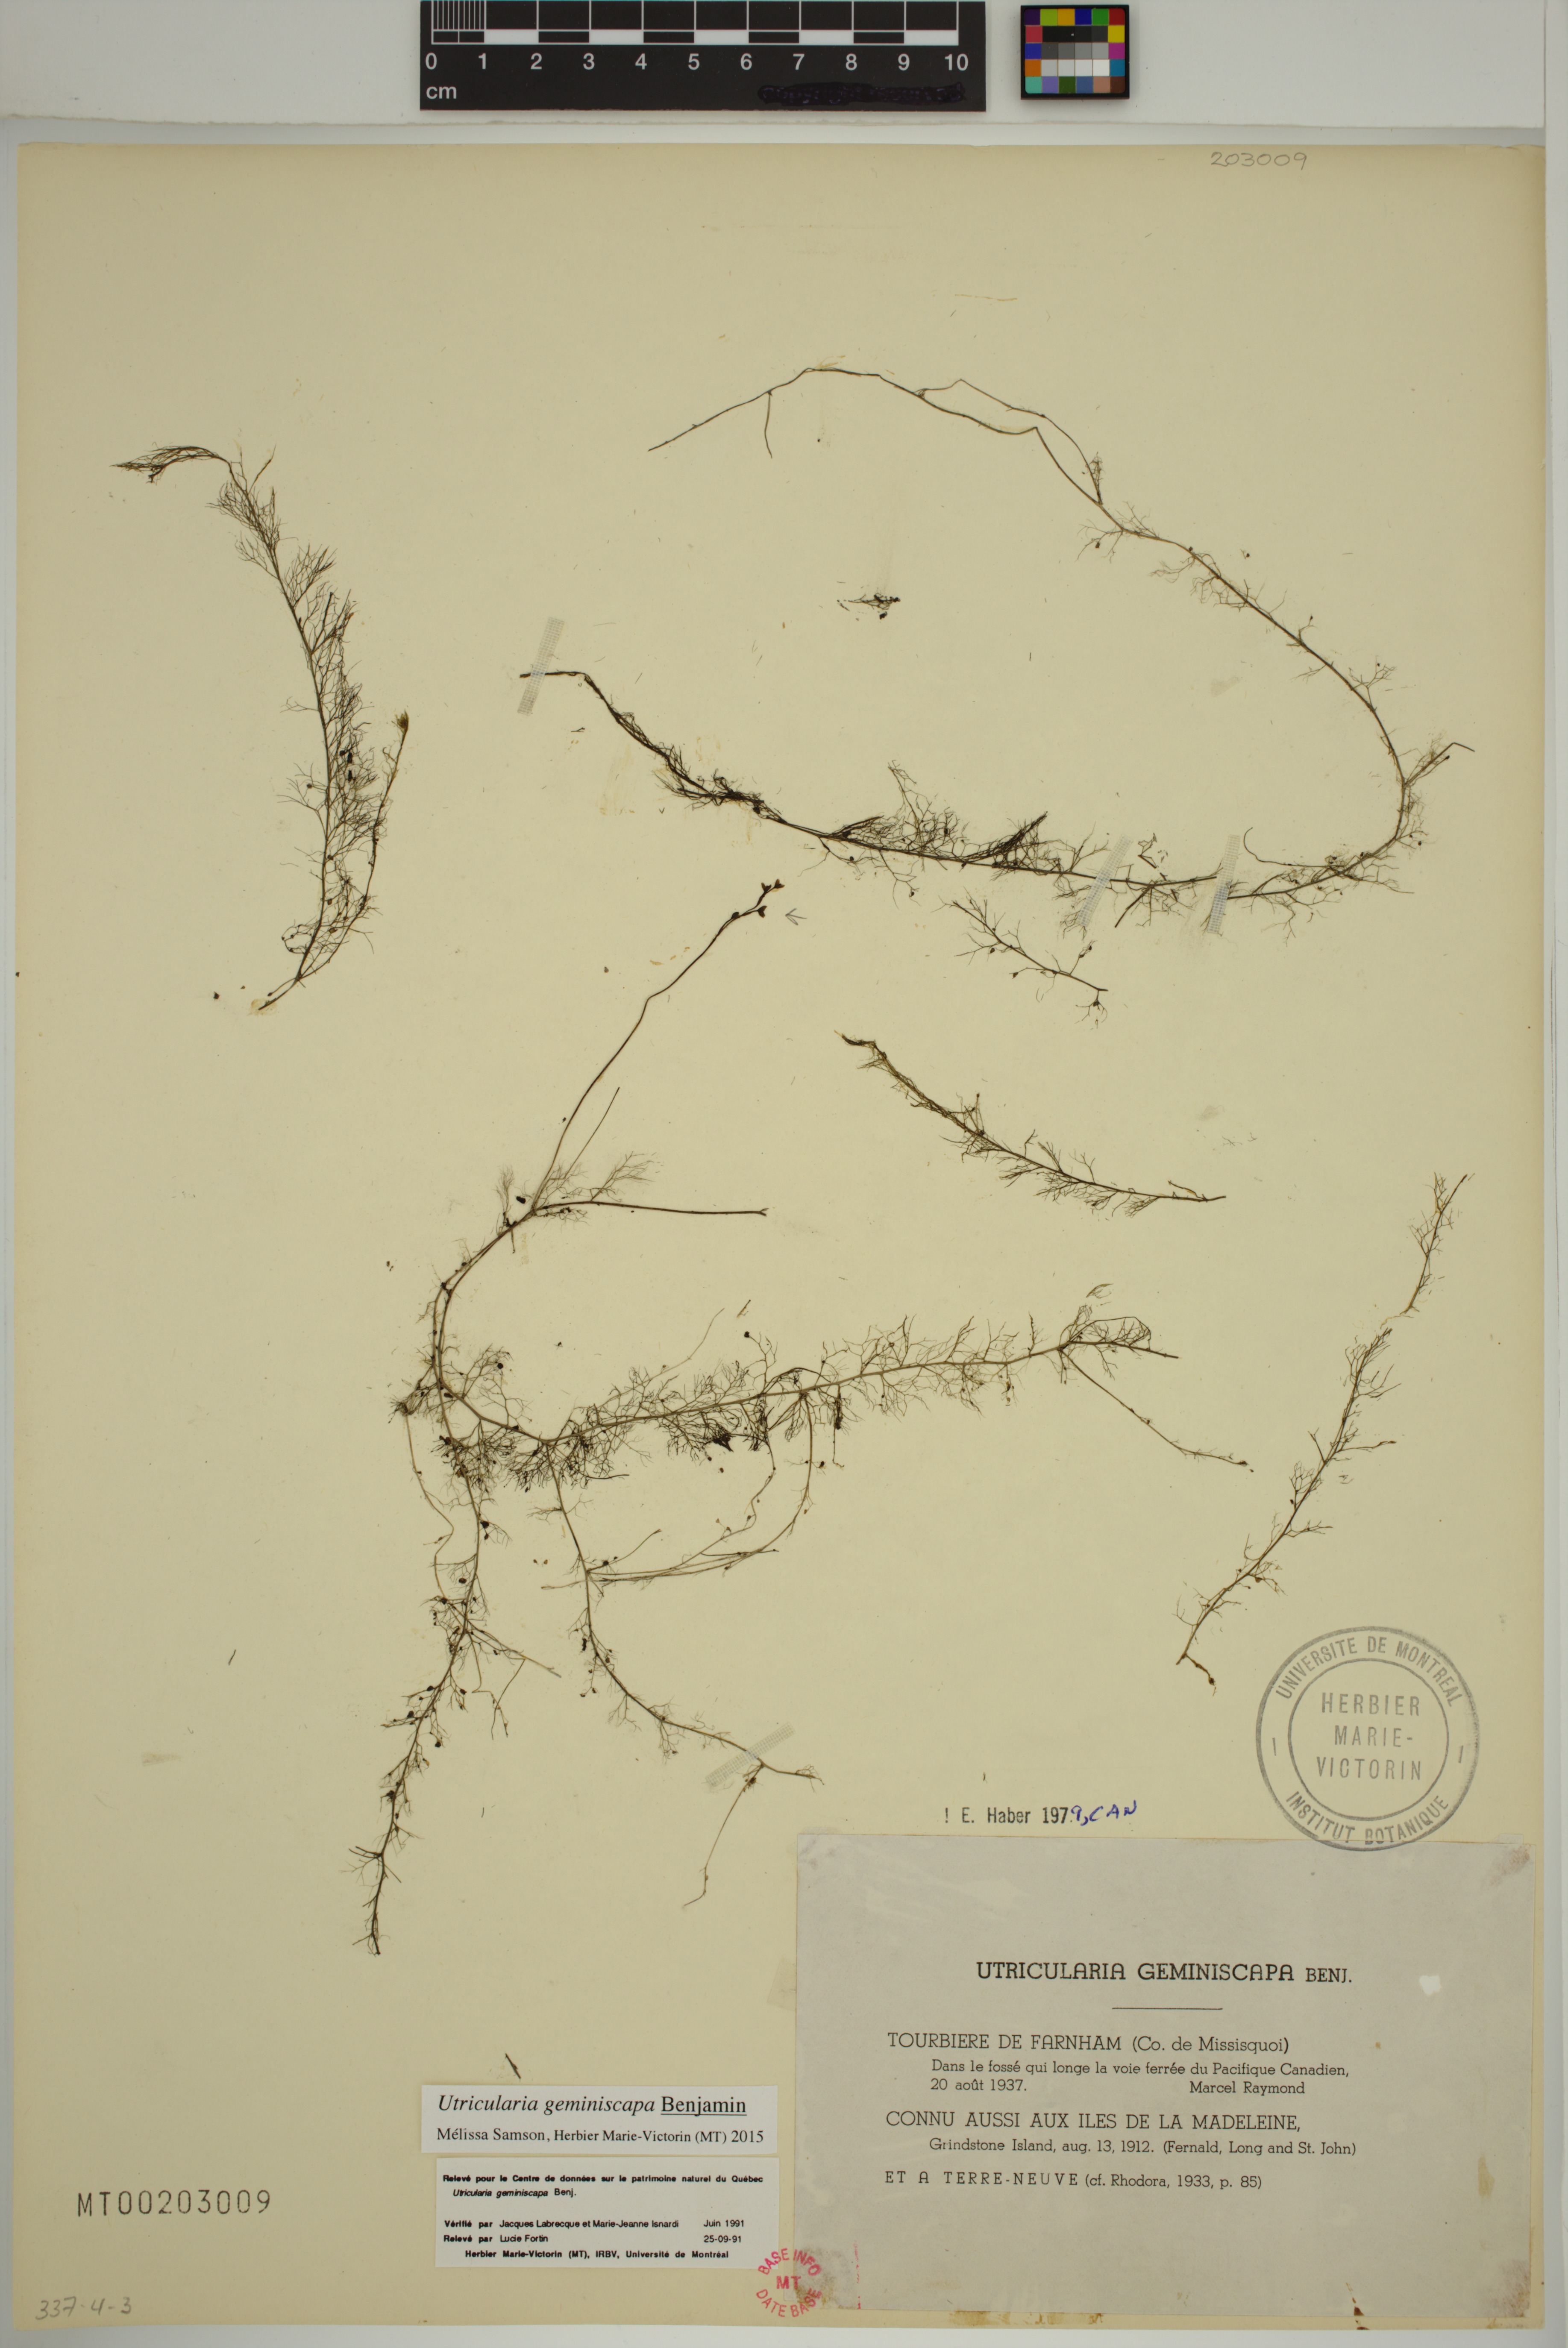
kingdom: Plantae
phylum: Tracheophyta
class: Magnoliopsida
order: Lamiales
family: Lentibulariaceae
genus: Utricularia
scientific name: Utricularia geminiscapa
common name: Hidden-fruit bladderwort
